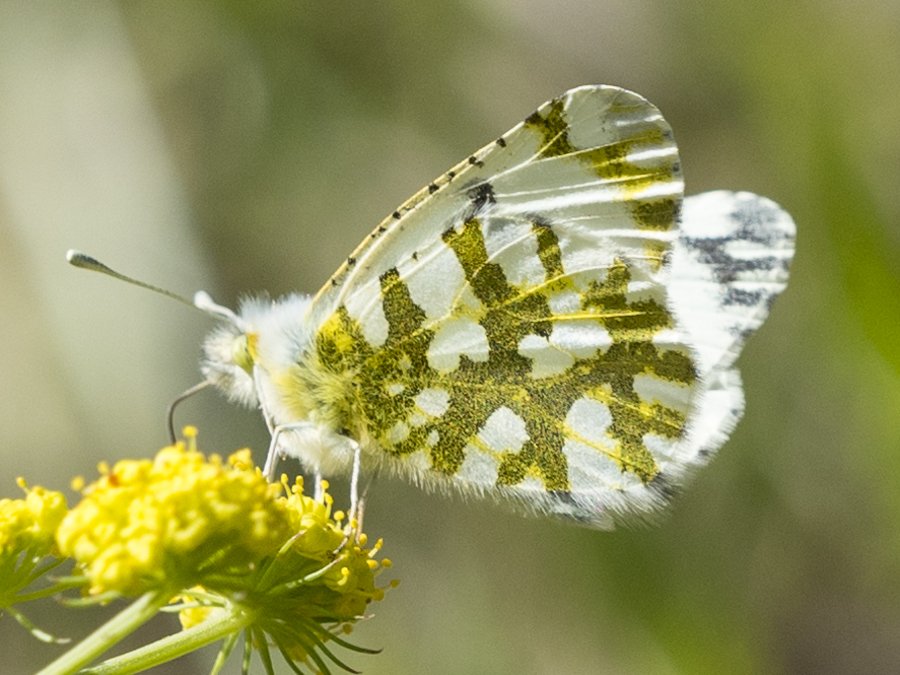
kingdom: Animalia
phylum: Arthropoda
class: Insecta
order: Lepidoptera
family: Pieridae
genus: Euchloe
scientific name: Euchloe ausonides
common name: Large Marble
